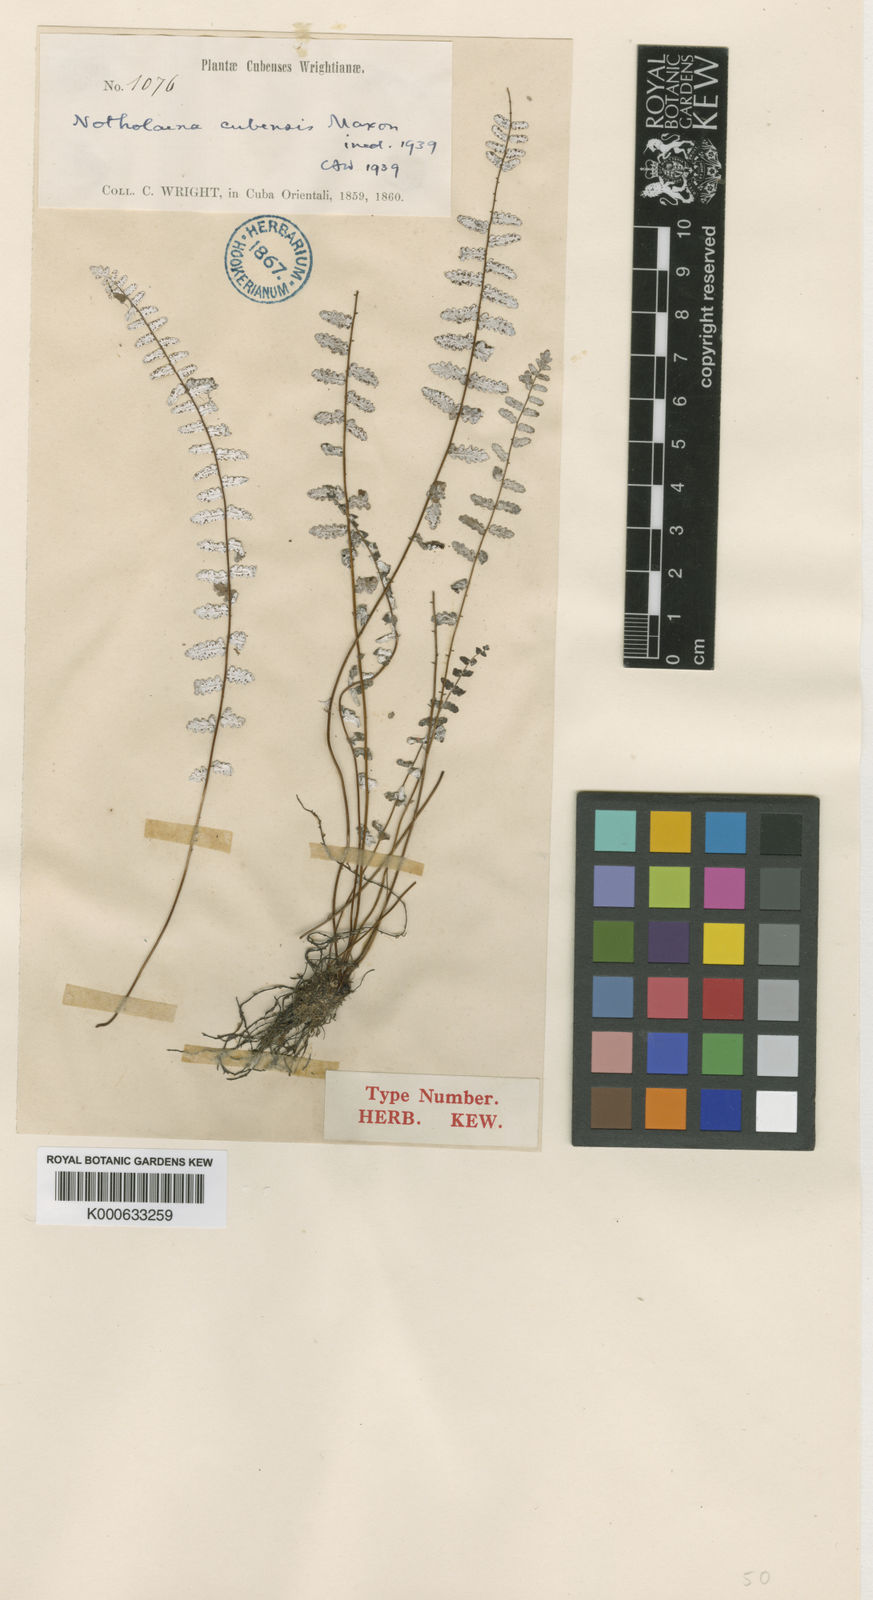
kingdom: Plantae
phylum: Tracheophyta
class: Polypodiopsida
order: Polypodiales
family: Pteridaceae
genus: Cheilanthes
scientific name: Cheilanthes
